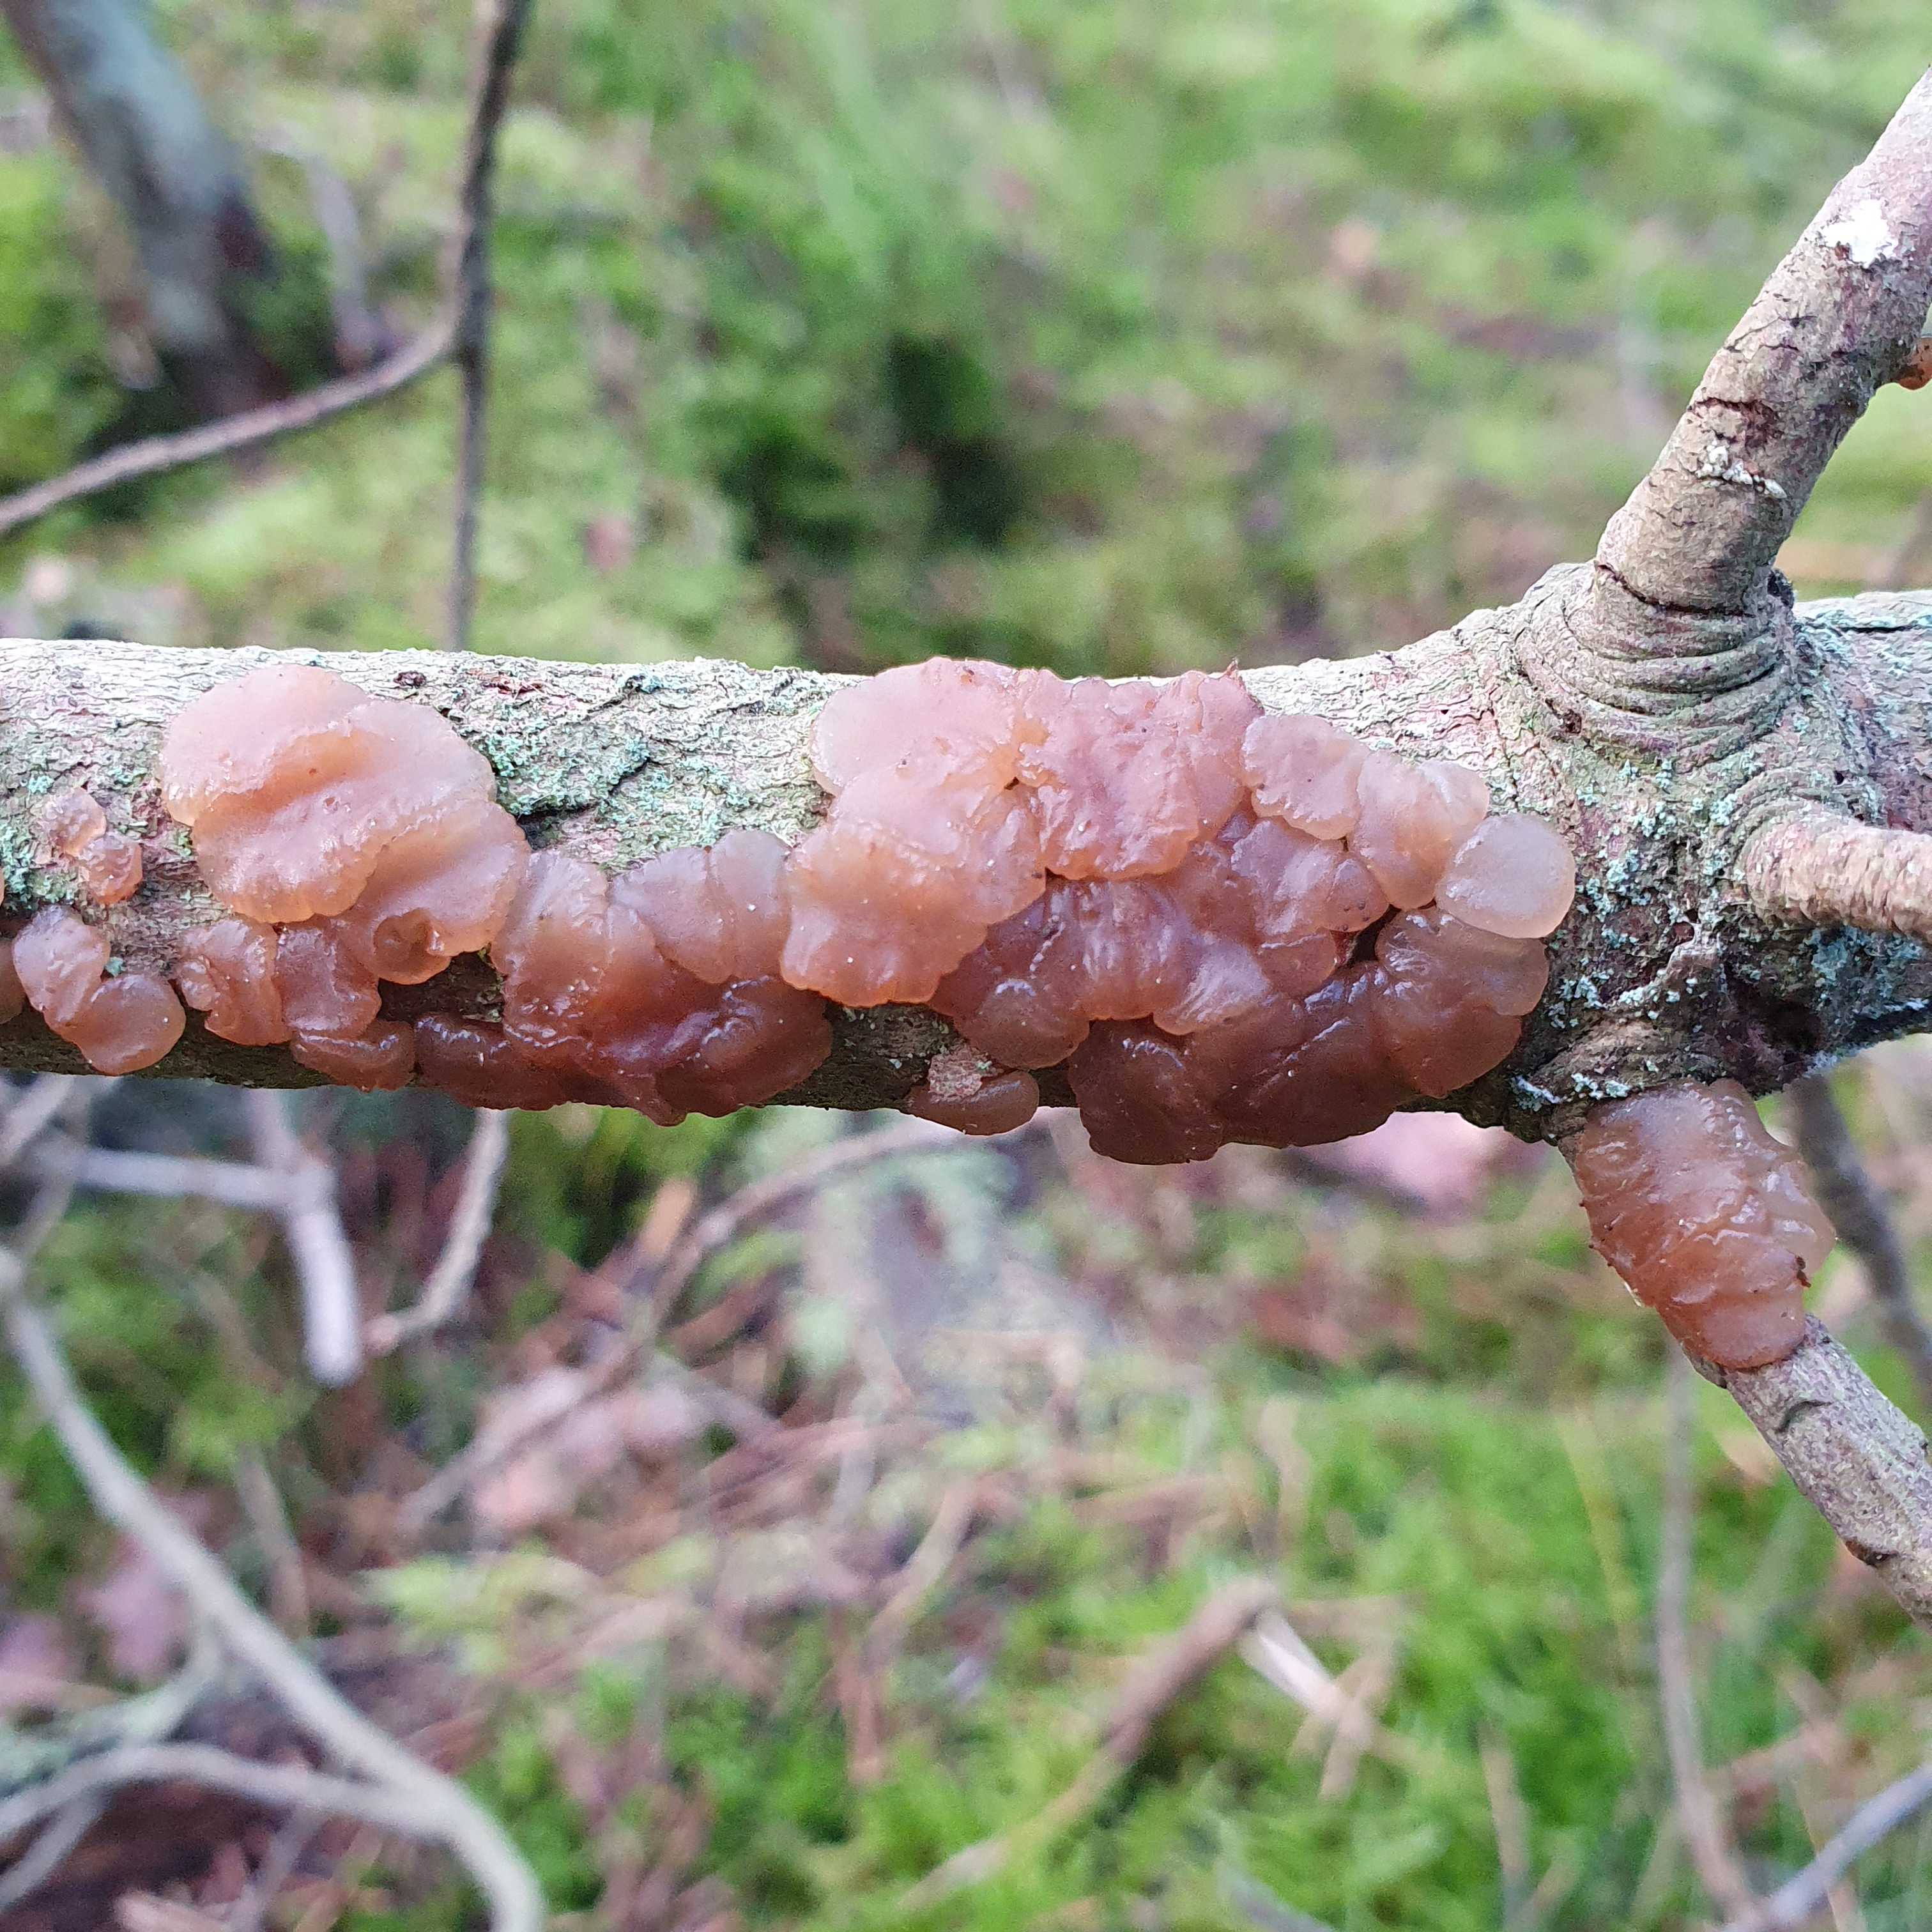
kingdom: Fungi
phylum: Basidiomycota
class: Agaricomycetes
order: Auriculariales
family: Auriculariaceae
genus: Exidia
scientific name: Exidia saccharina
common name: kandis-bævretop
